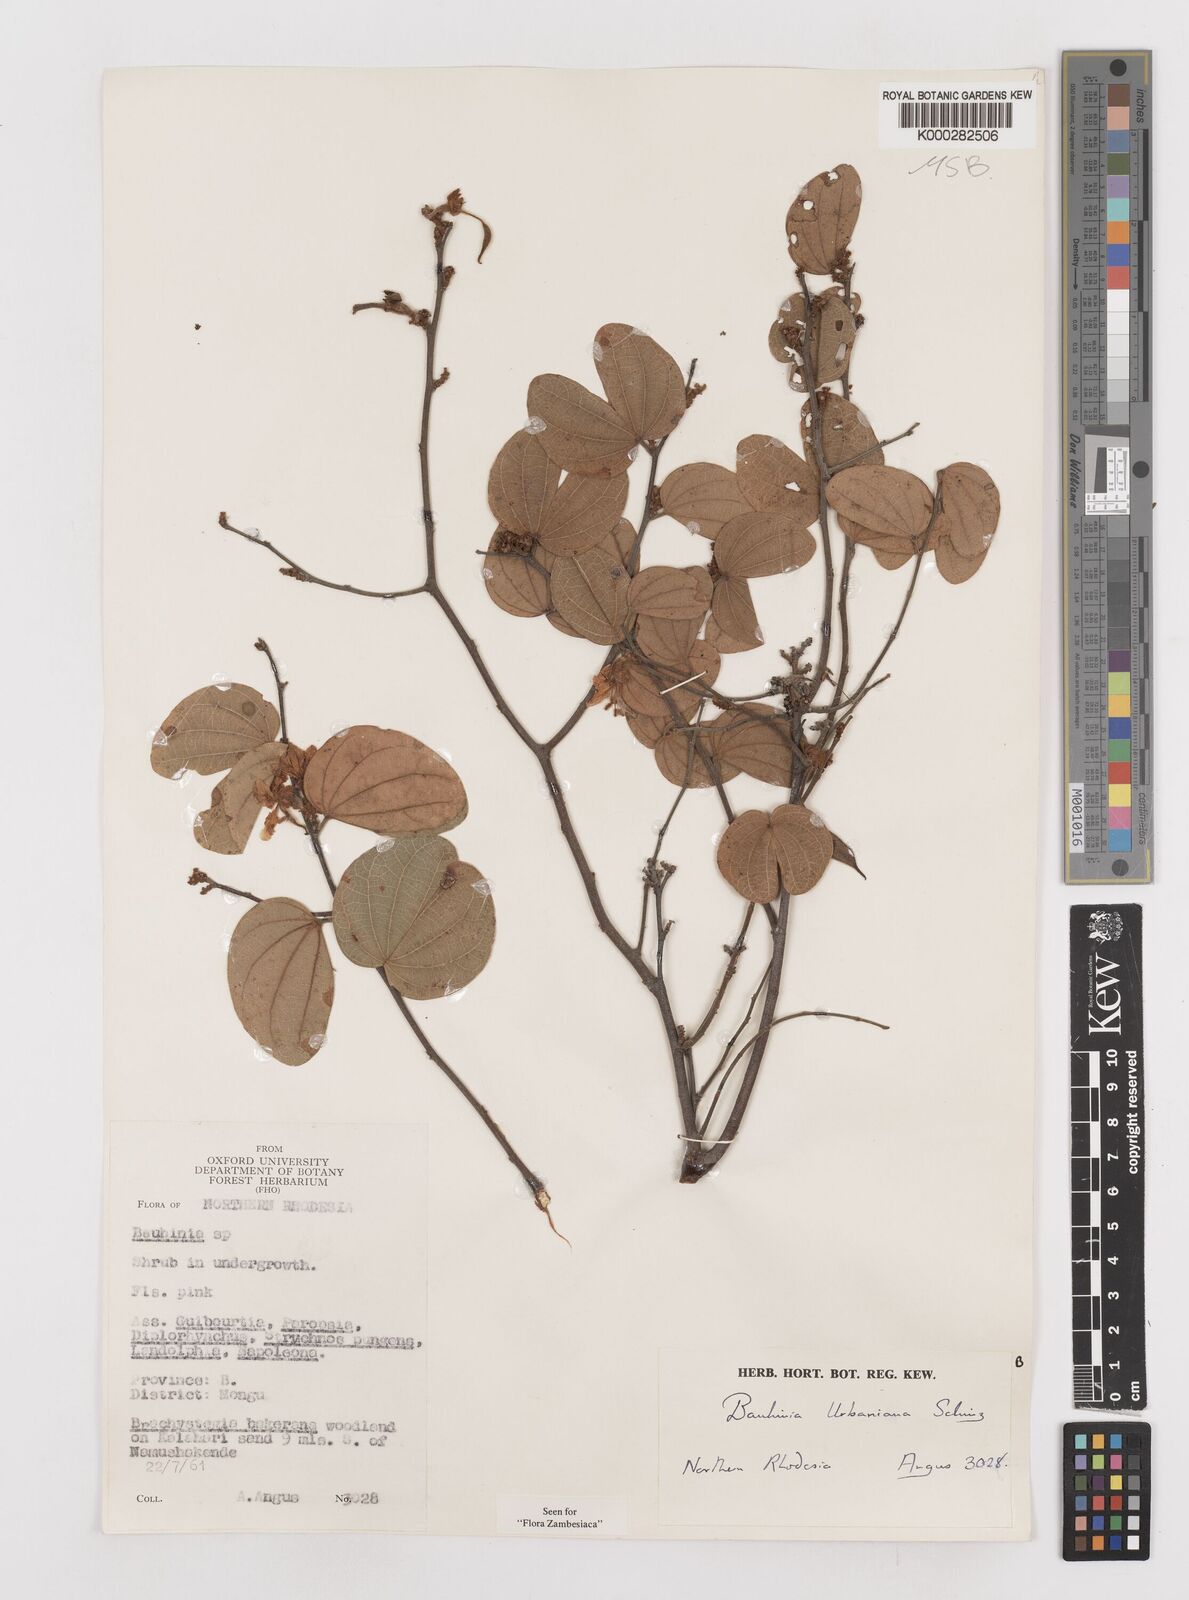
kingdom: Plantae
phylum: Tracheophyta
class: Magnoliopsida
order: Fabales
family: Fabaceae
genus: Bauhinia
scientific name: Bauhinia urbaniana
